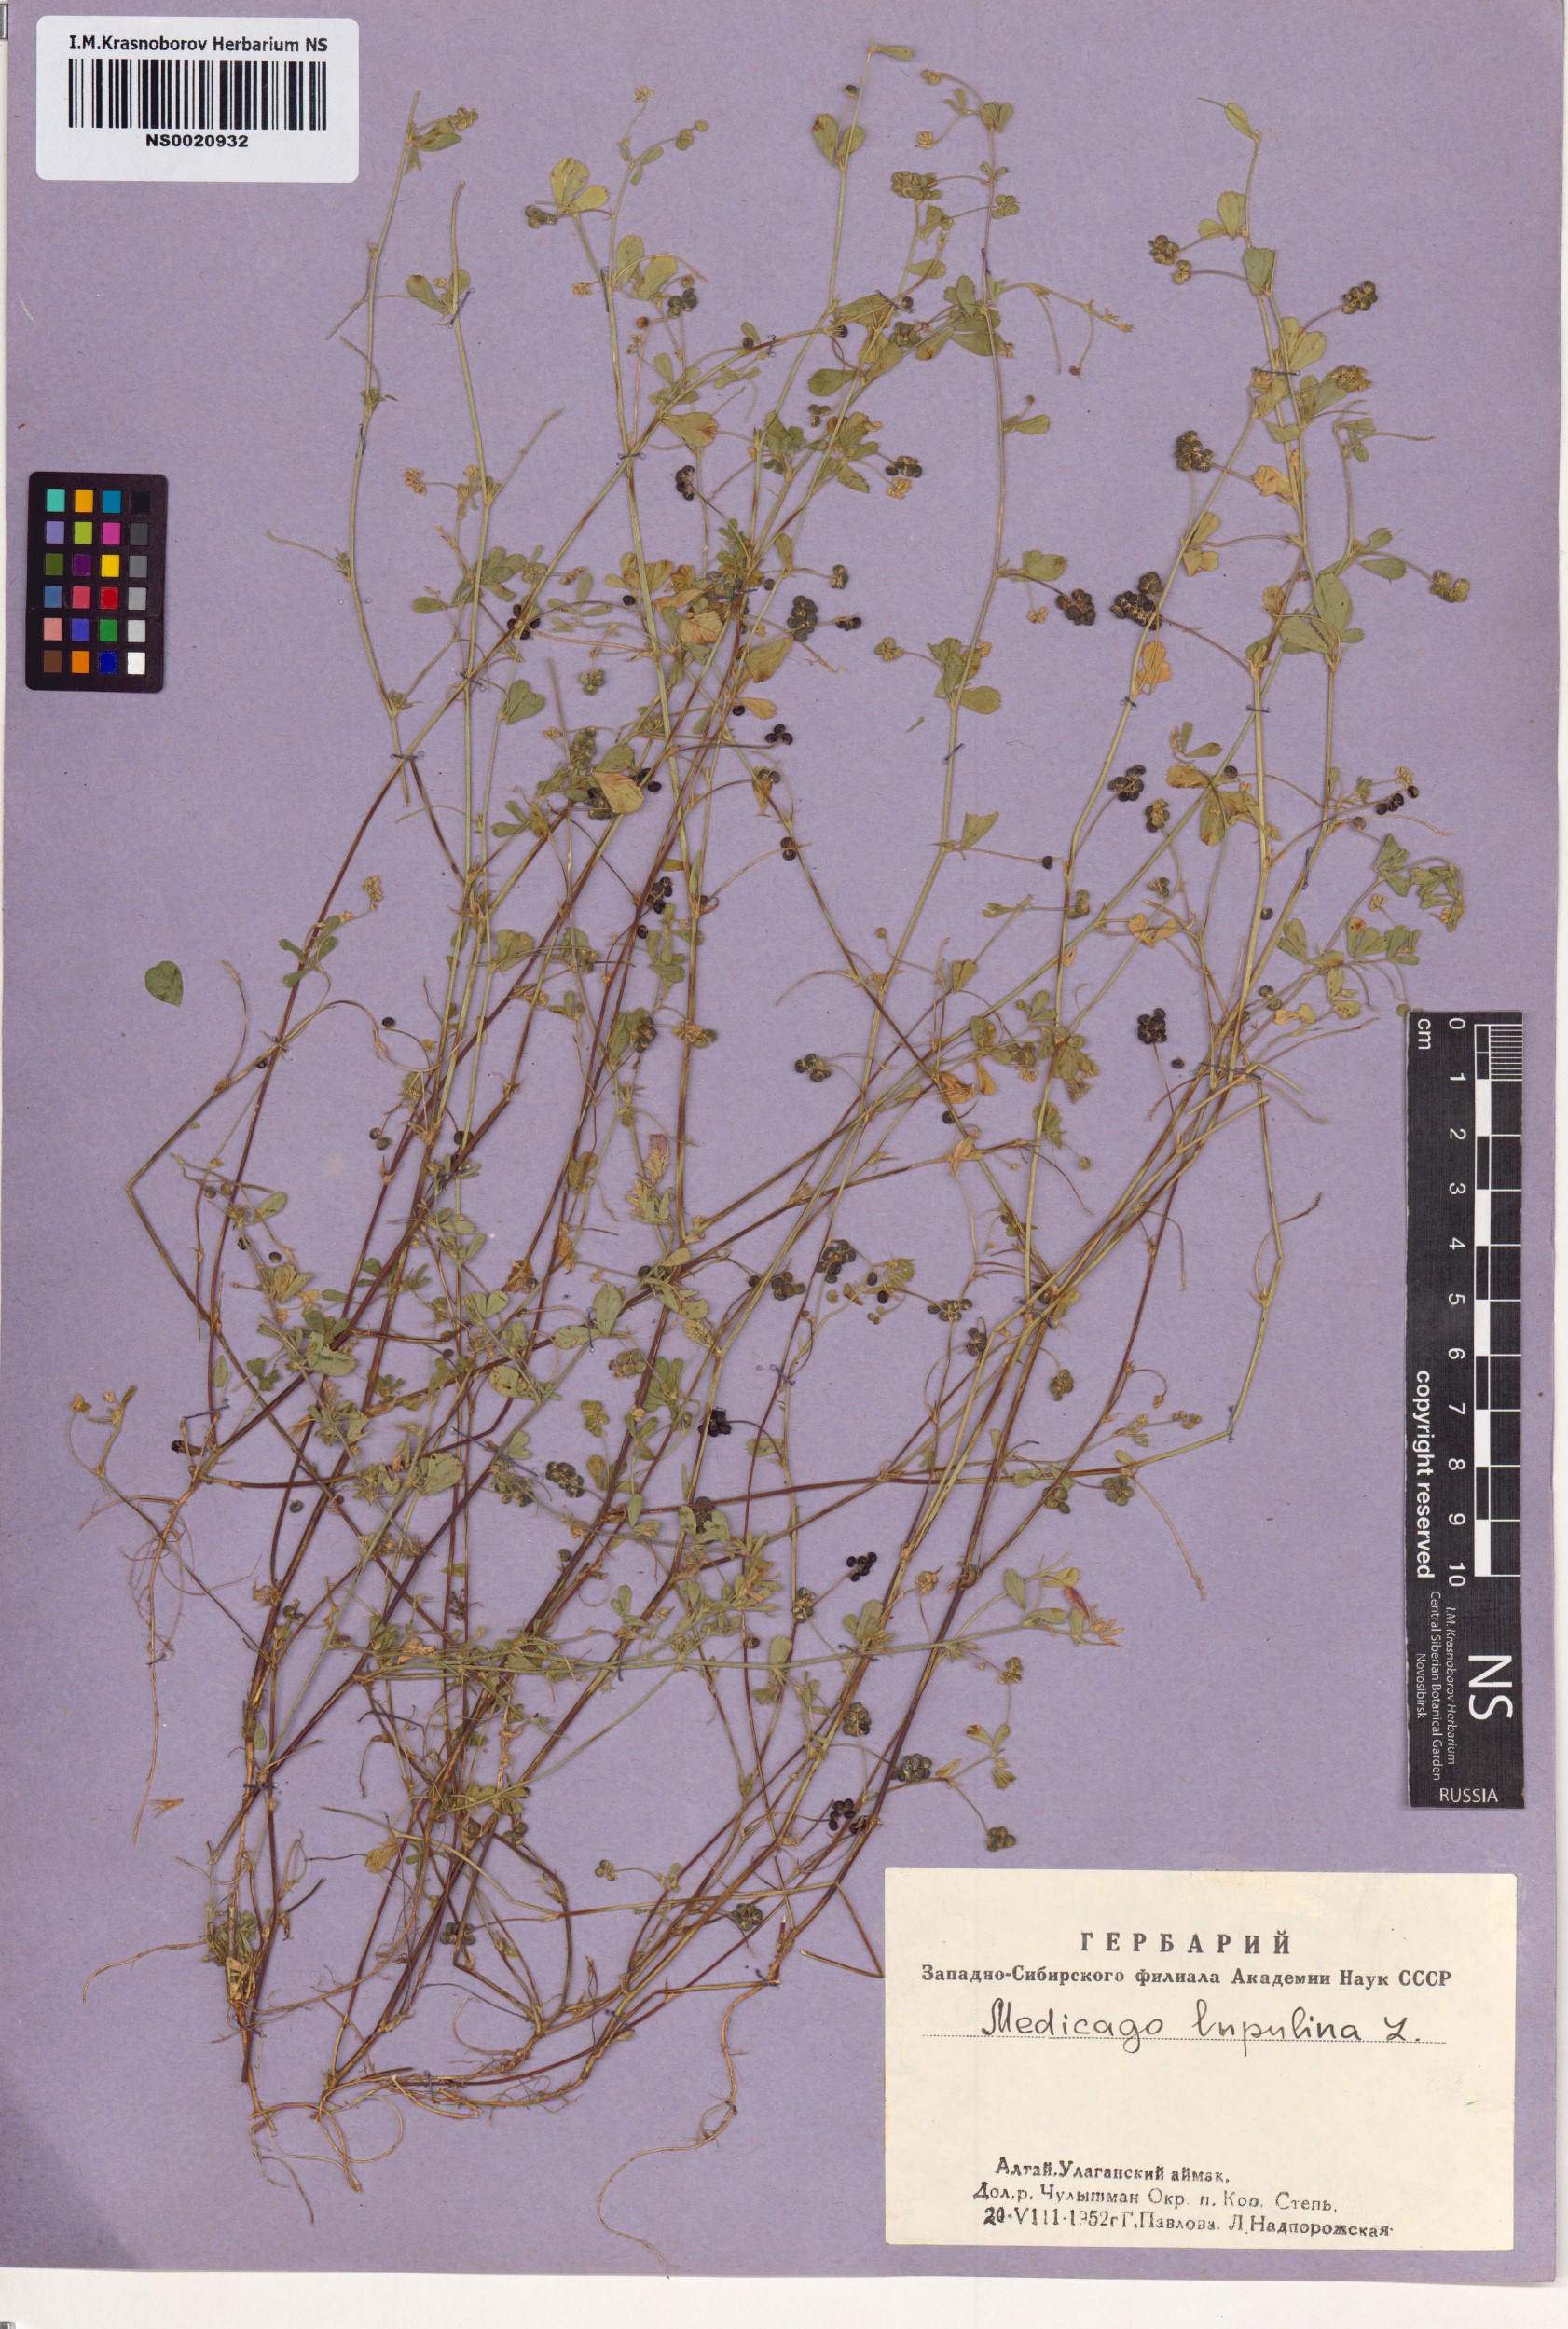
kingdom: Plantae
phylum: Tracheophyta
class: Magnoliopsida
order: Fabales
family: Fabaceae
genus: Medicago
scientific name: Medicago lupulina
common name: Black medick
